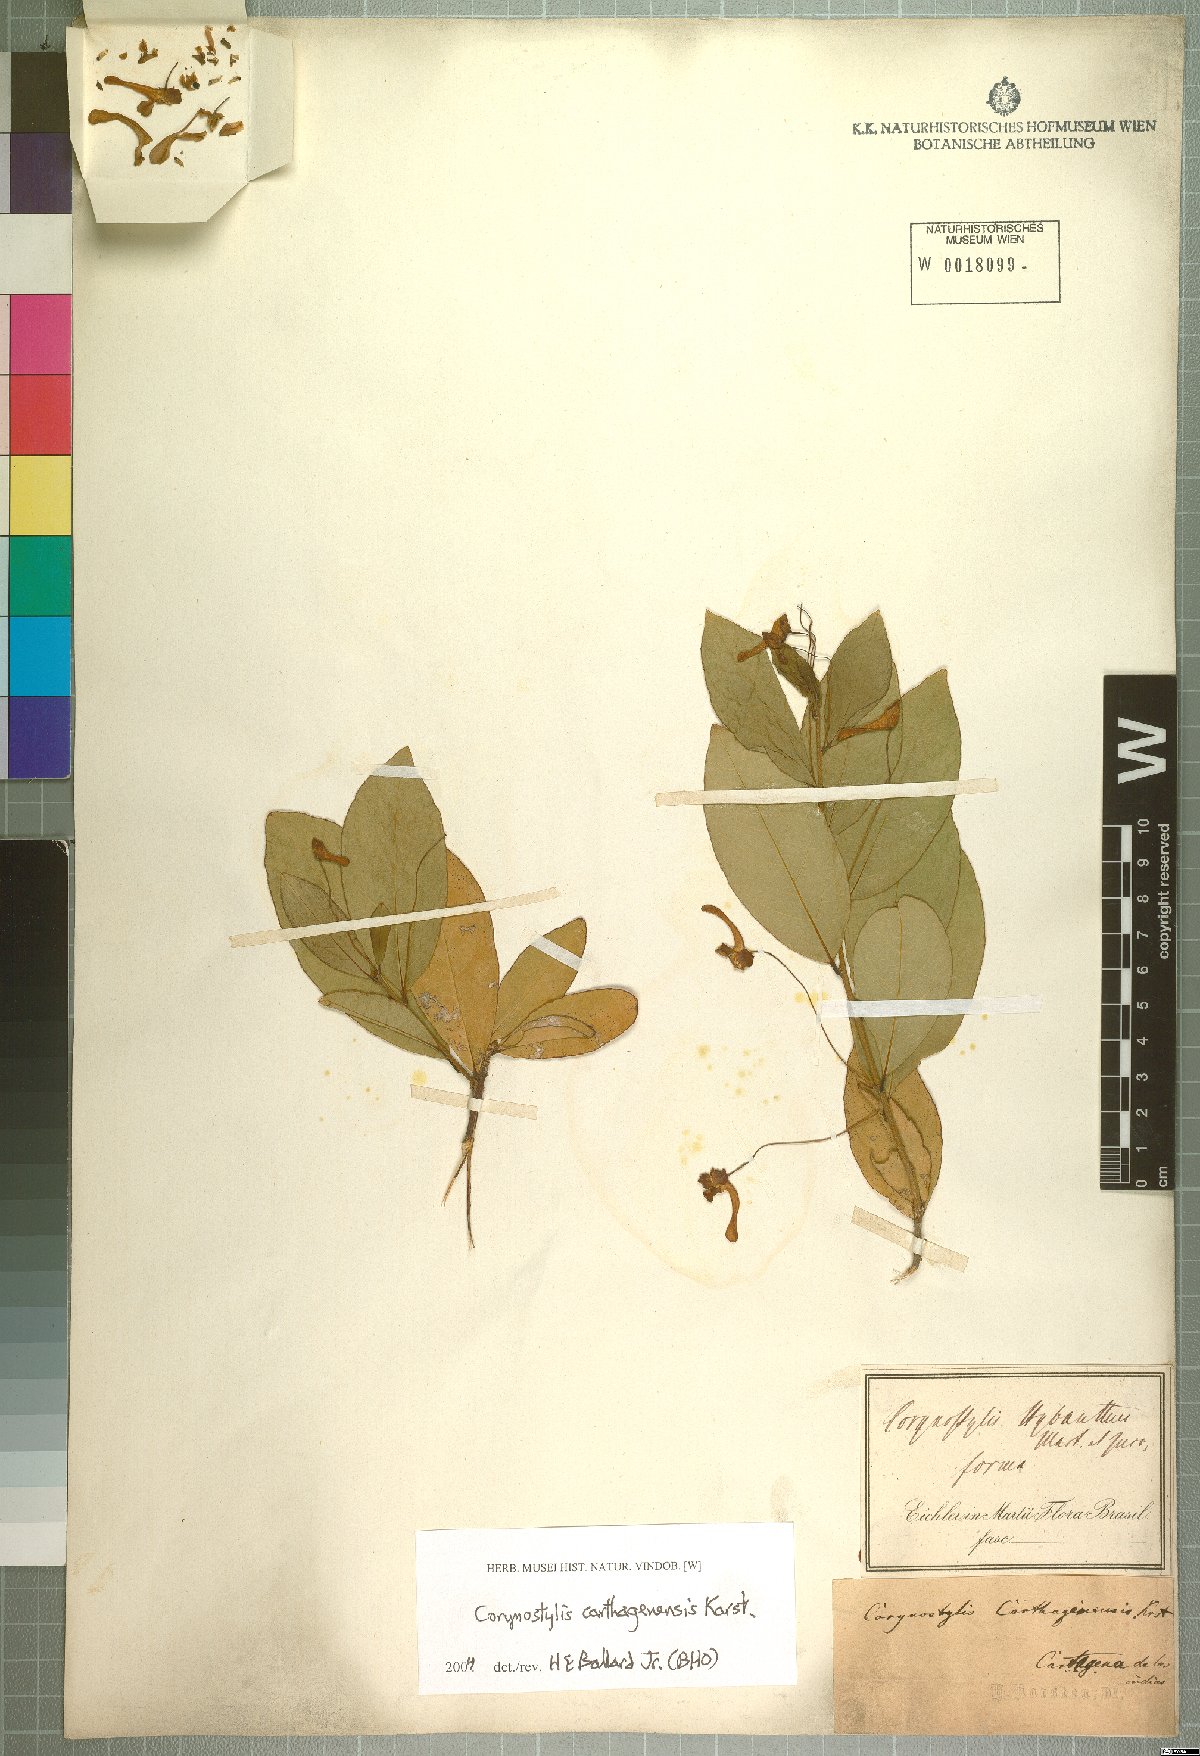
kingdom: Plantae
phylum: Tracheophyta
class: Magnoliopsida
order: Malpighiales
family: Violaceae
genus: Calyptrion
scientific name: Calyptrion carthagenense
